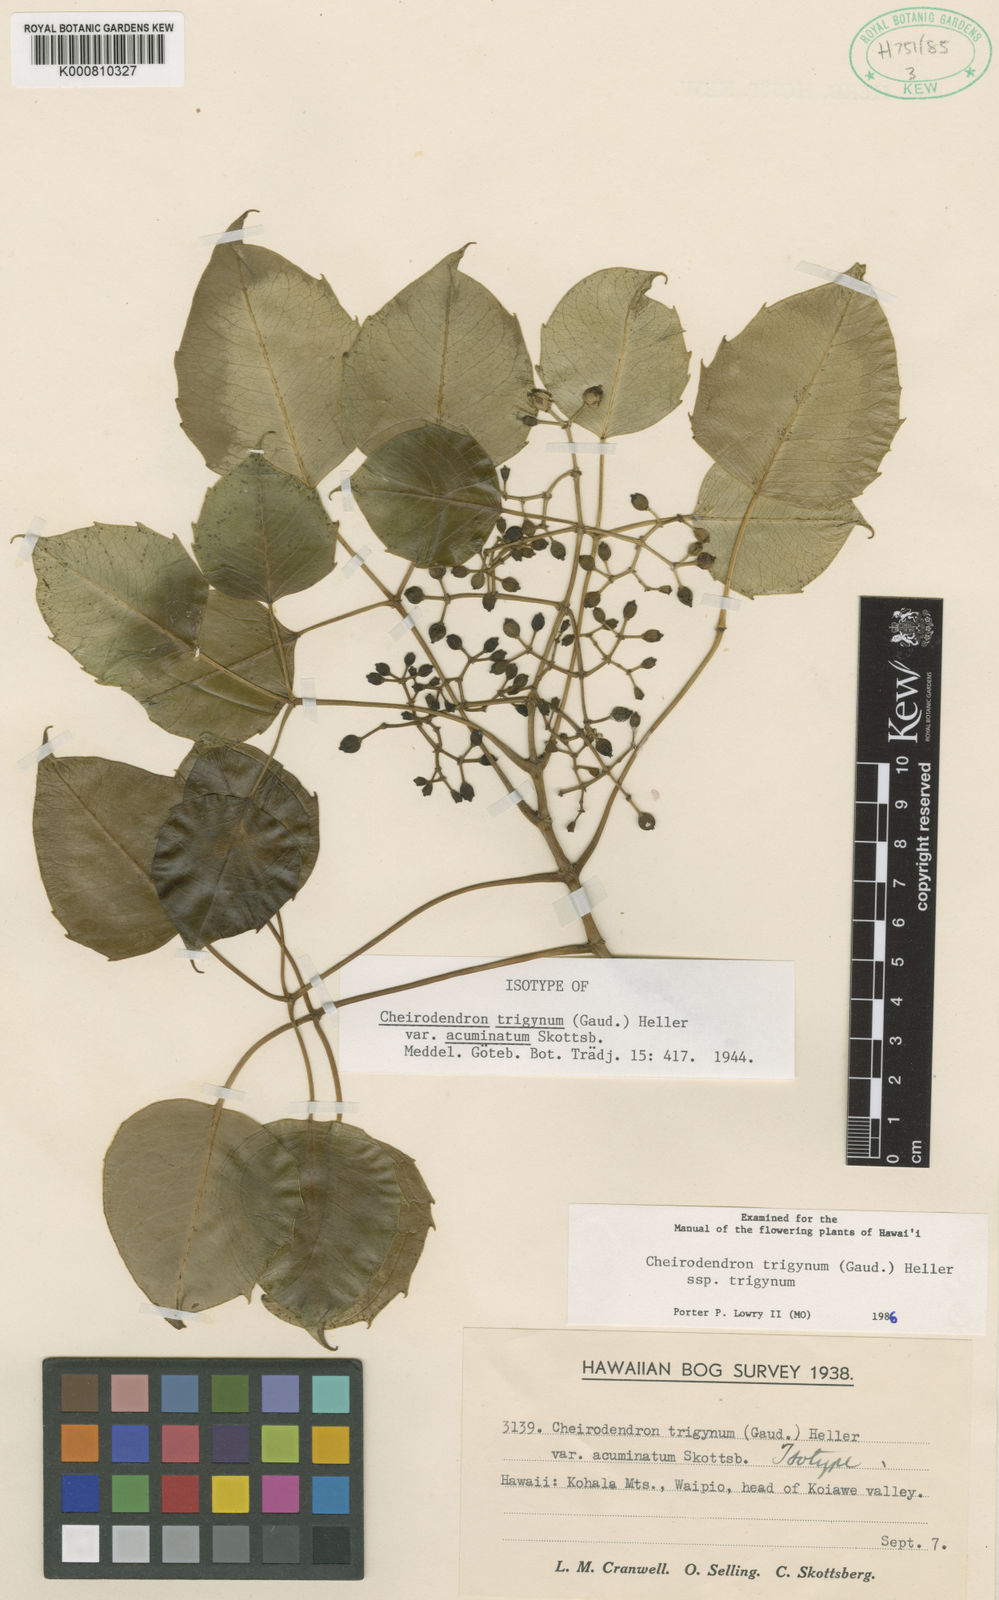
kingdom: Plantae
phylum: Tracheophyta
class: Magnoliopsida
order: Apiales
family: Araliaceae
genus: Cheirodendron
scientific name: Cheirodendron trigynum
